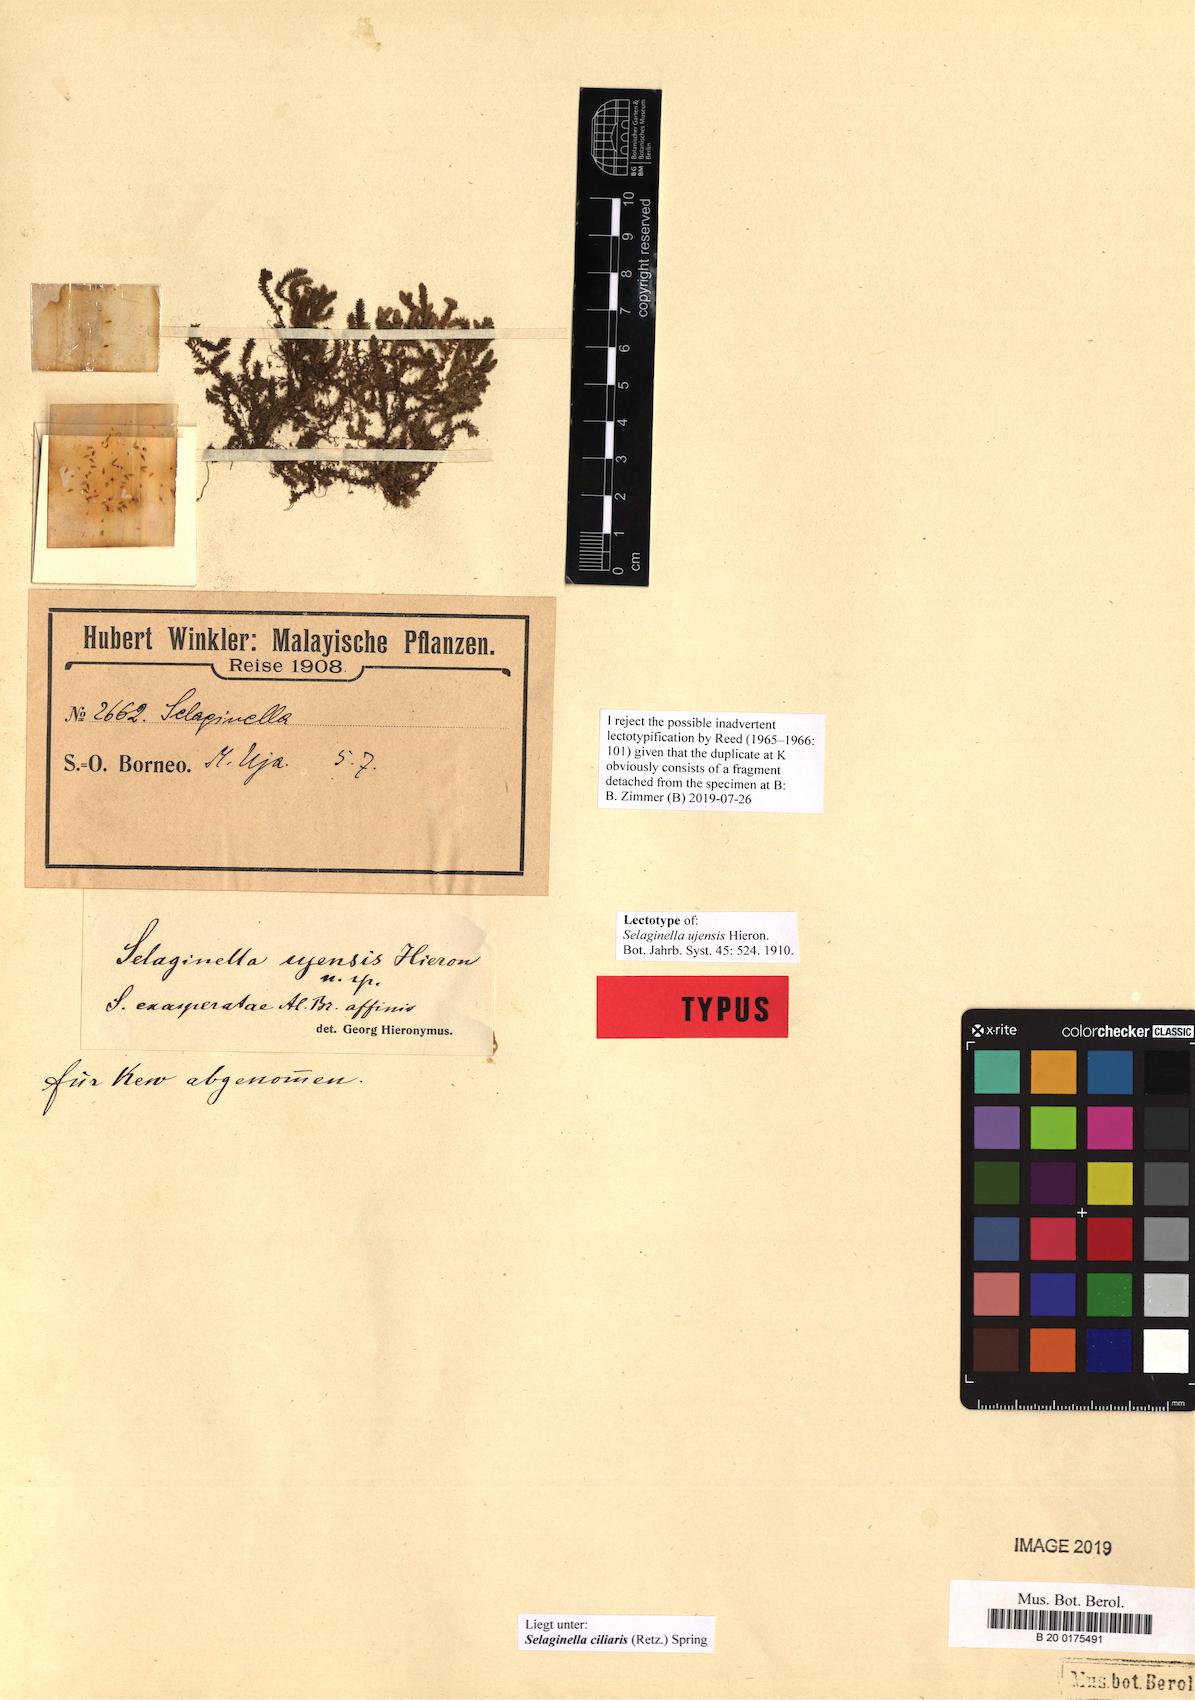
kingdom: Plantae
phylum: Tracheophyta
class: Lycopodiopsida
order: Selaginellales
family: Selaginellaceae
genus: Selaginella
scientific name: Selaginella ciliaris
